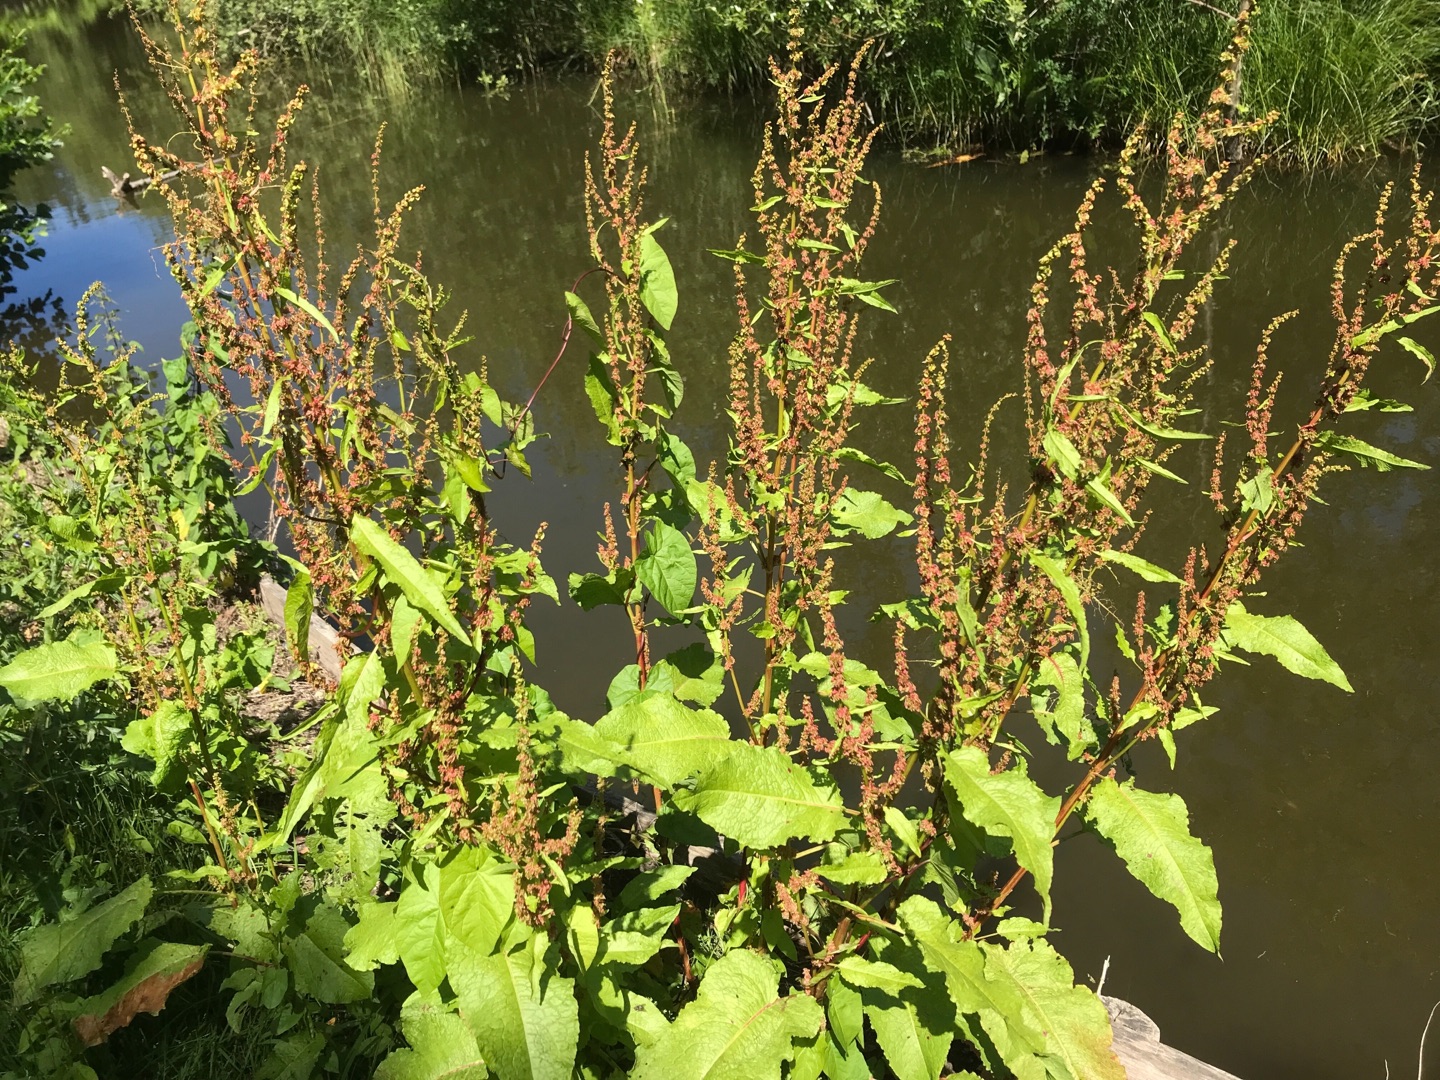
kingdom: Plantae
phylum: Tracheophyta
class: Magnoliopsida
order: Caryophyllales
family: Polygonaceae
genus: Rumex
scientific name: Rumex obtusifolius
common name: Butbladet skræppe
